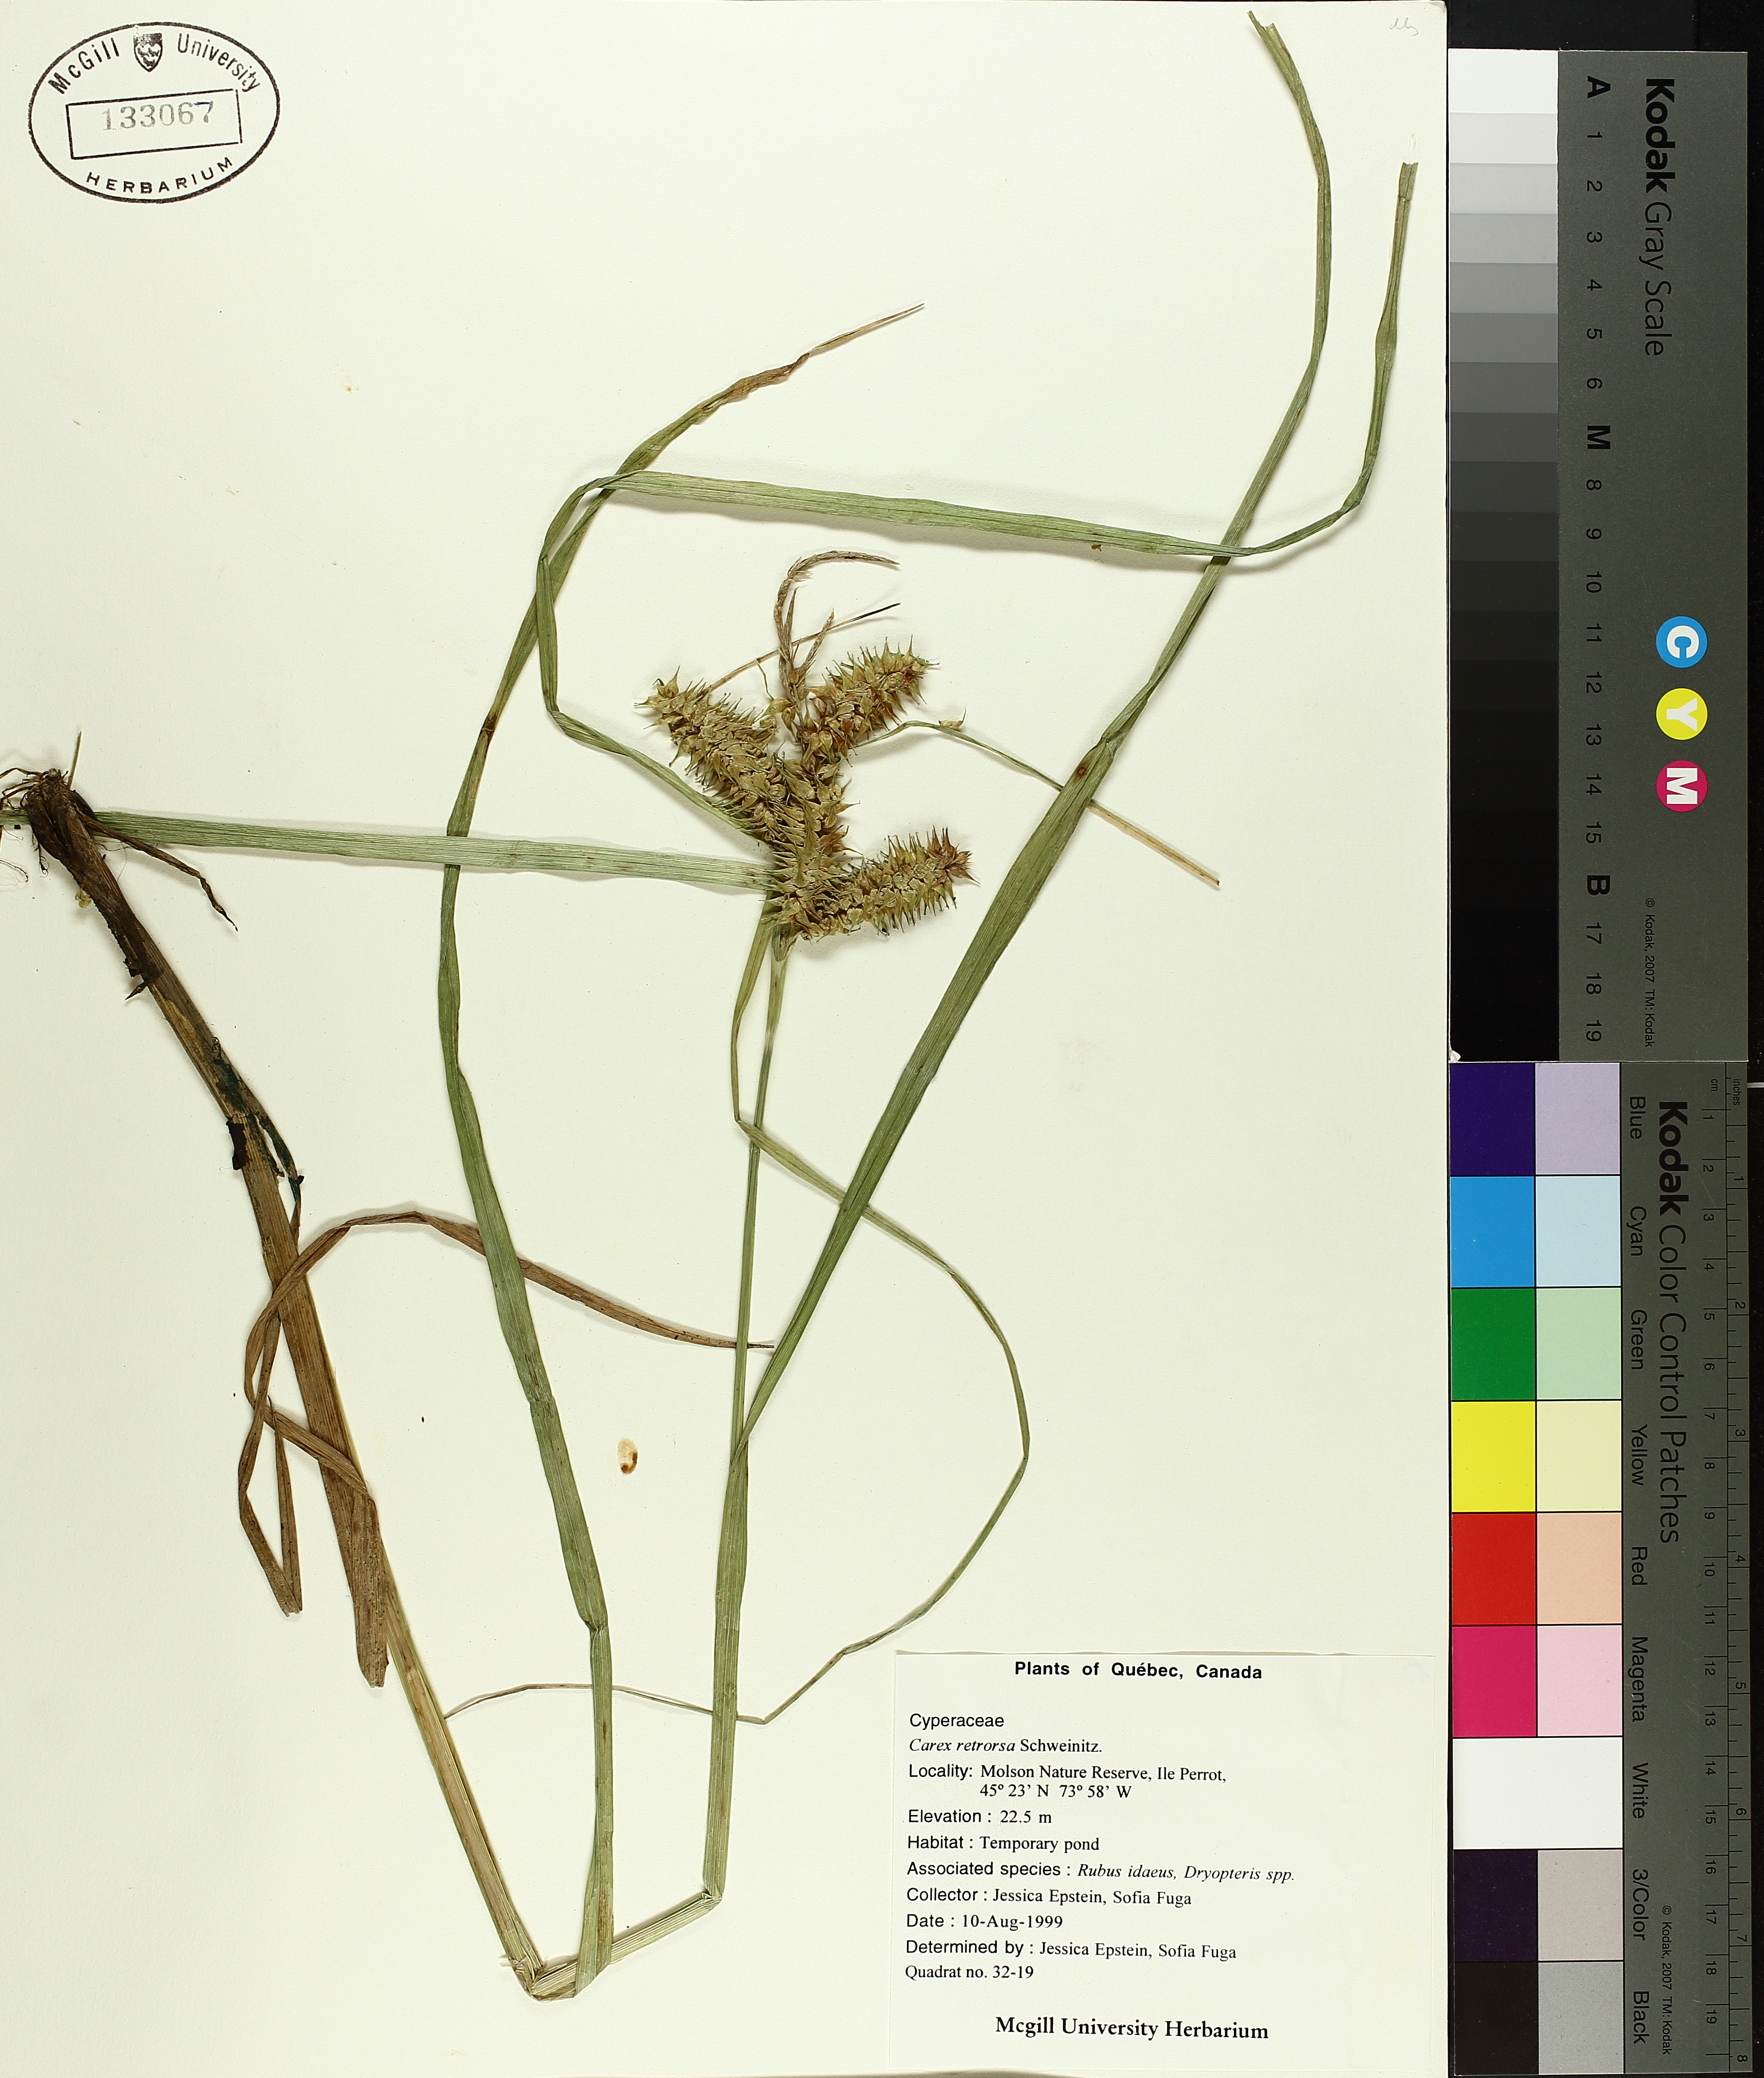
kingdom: Plantae
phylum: Tracheophyta
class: Liliopsida
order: Poales
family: Cyperaceae
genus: Carex
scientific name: Carex retrorsa
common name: Knot-sheath sedge
